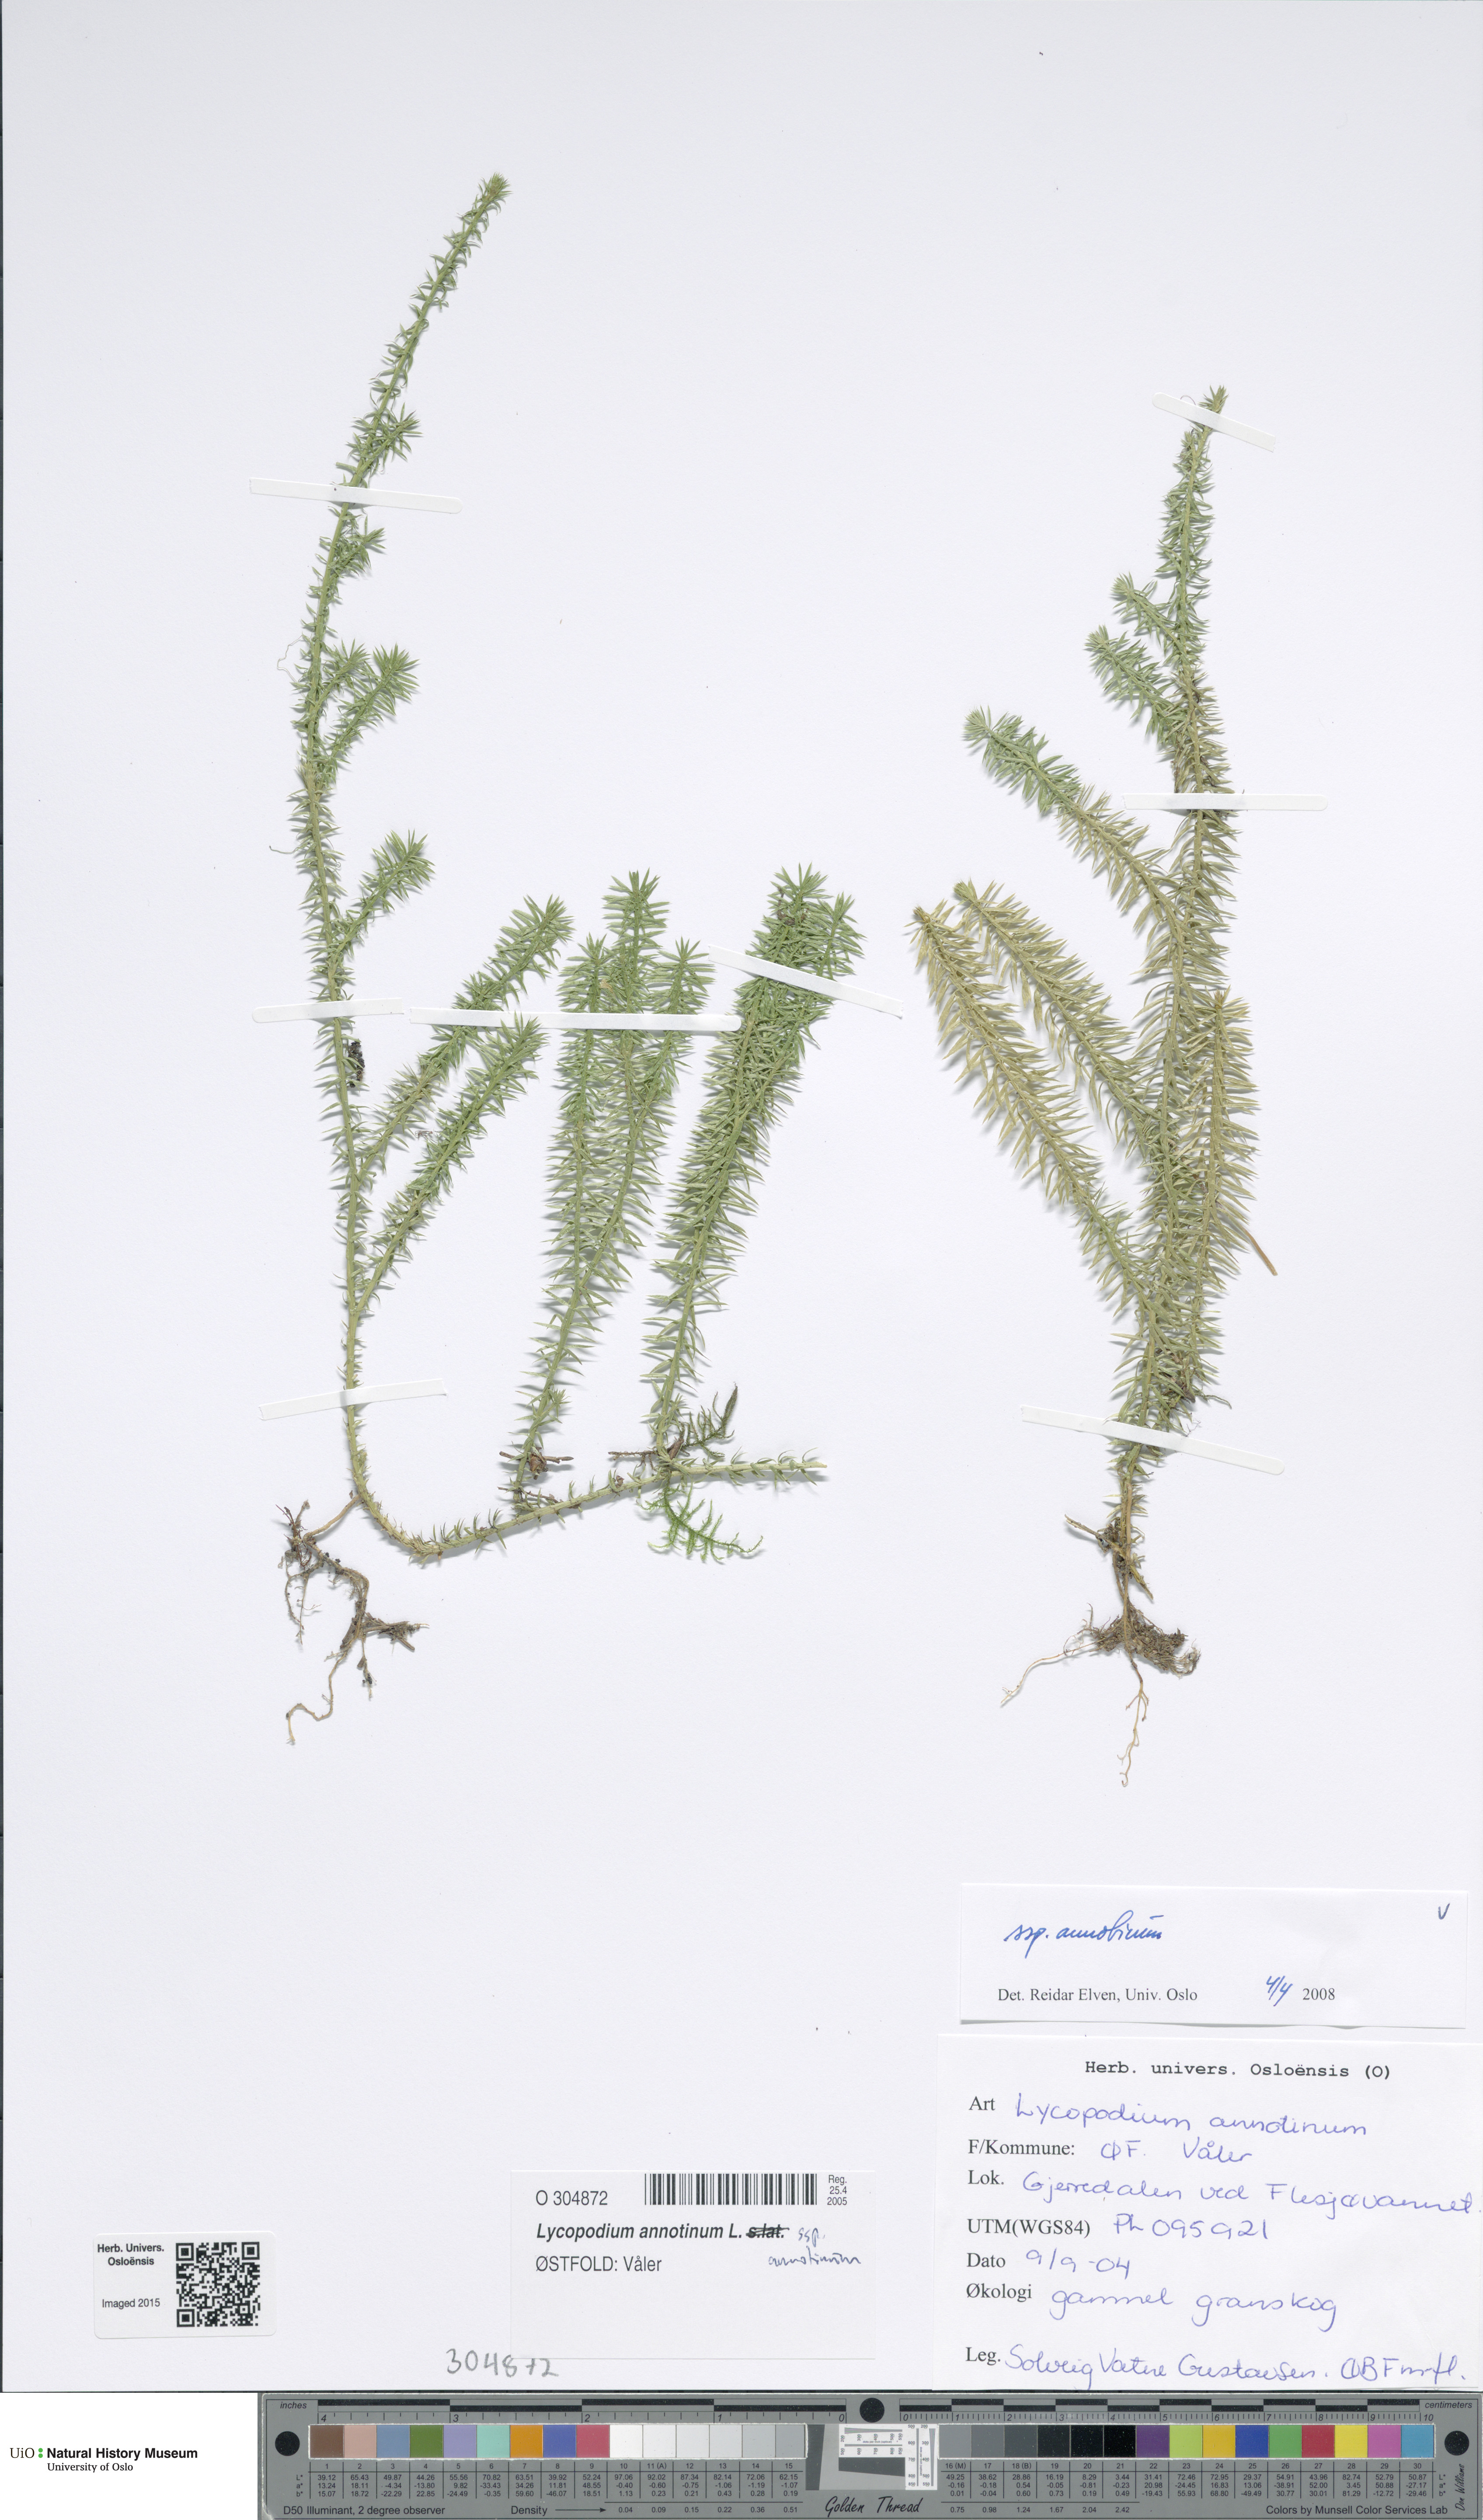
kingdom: Plantae
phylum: Tracheophyta
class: Lycopodiopsida
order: Lycopodiales
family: Lycopodiaceae
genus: Spinulum
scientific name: Spinulum annotinum
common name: Interrupted club-moss
